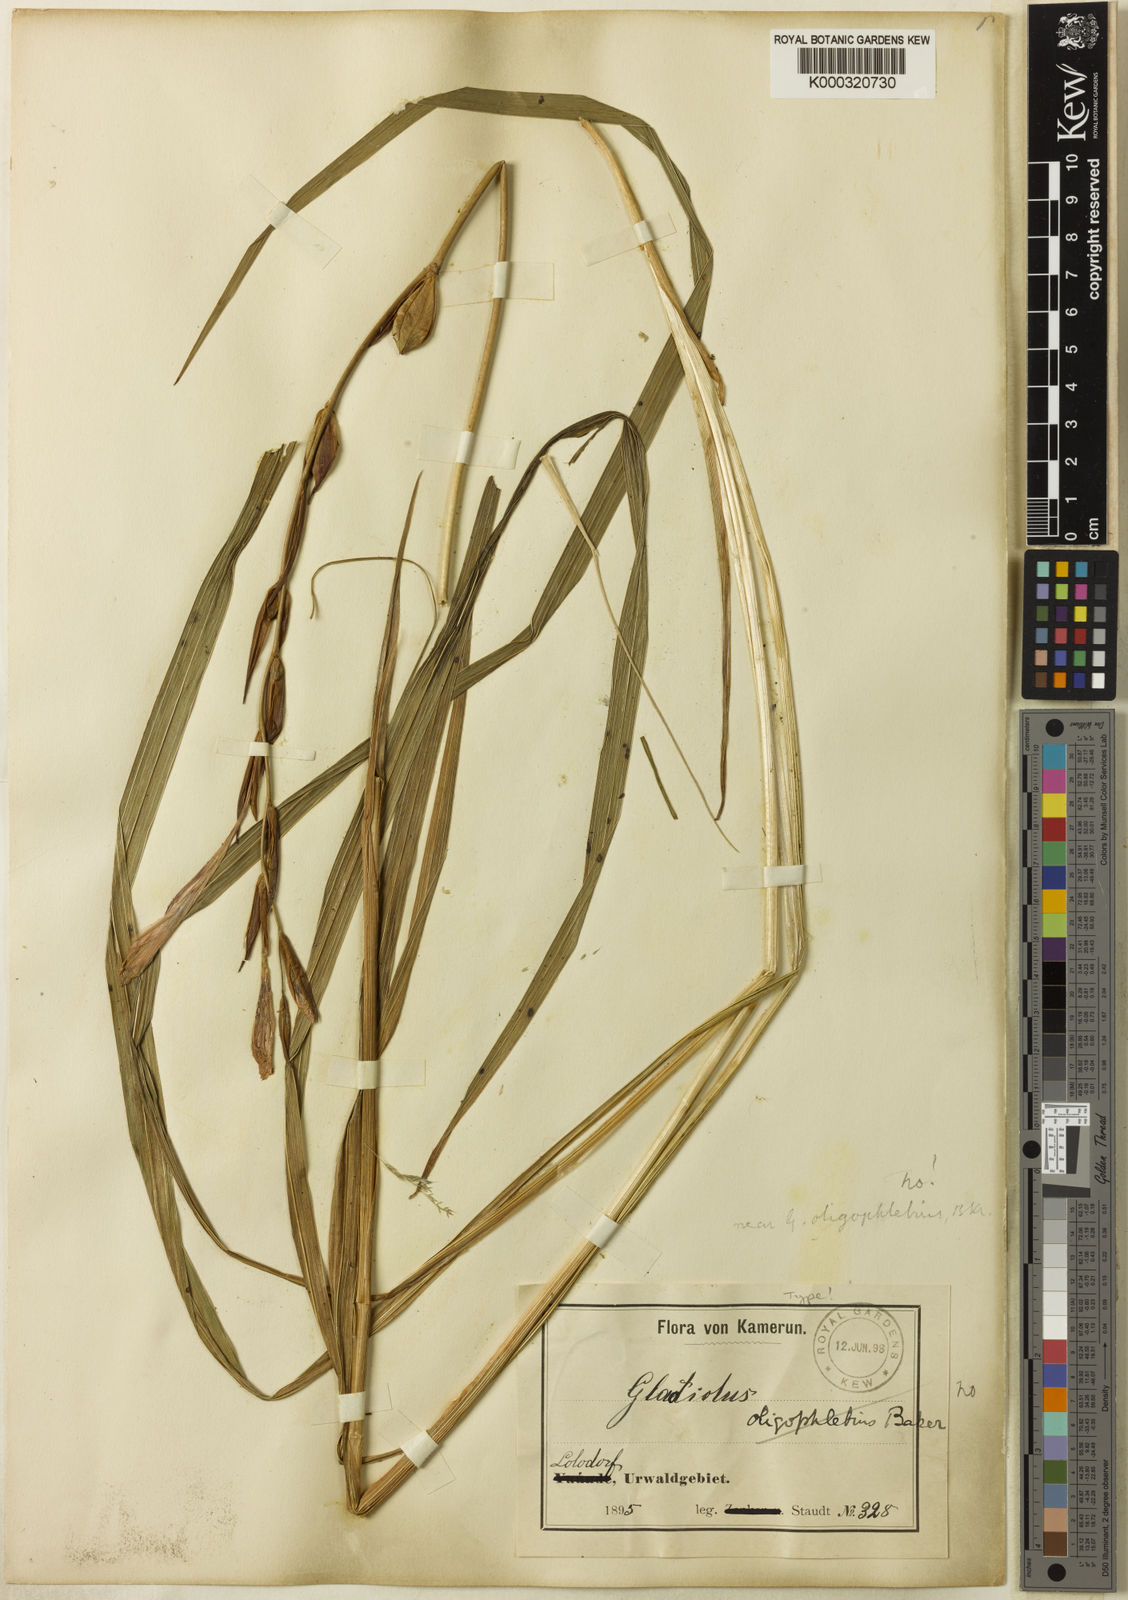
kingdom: Plantae
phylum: Tracheophyta
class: Liliopsida
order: Asparagales
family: Iridaceae
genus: Gladiolus
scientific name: Gladiolus mirus
